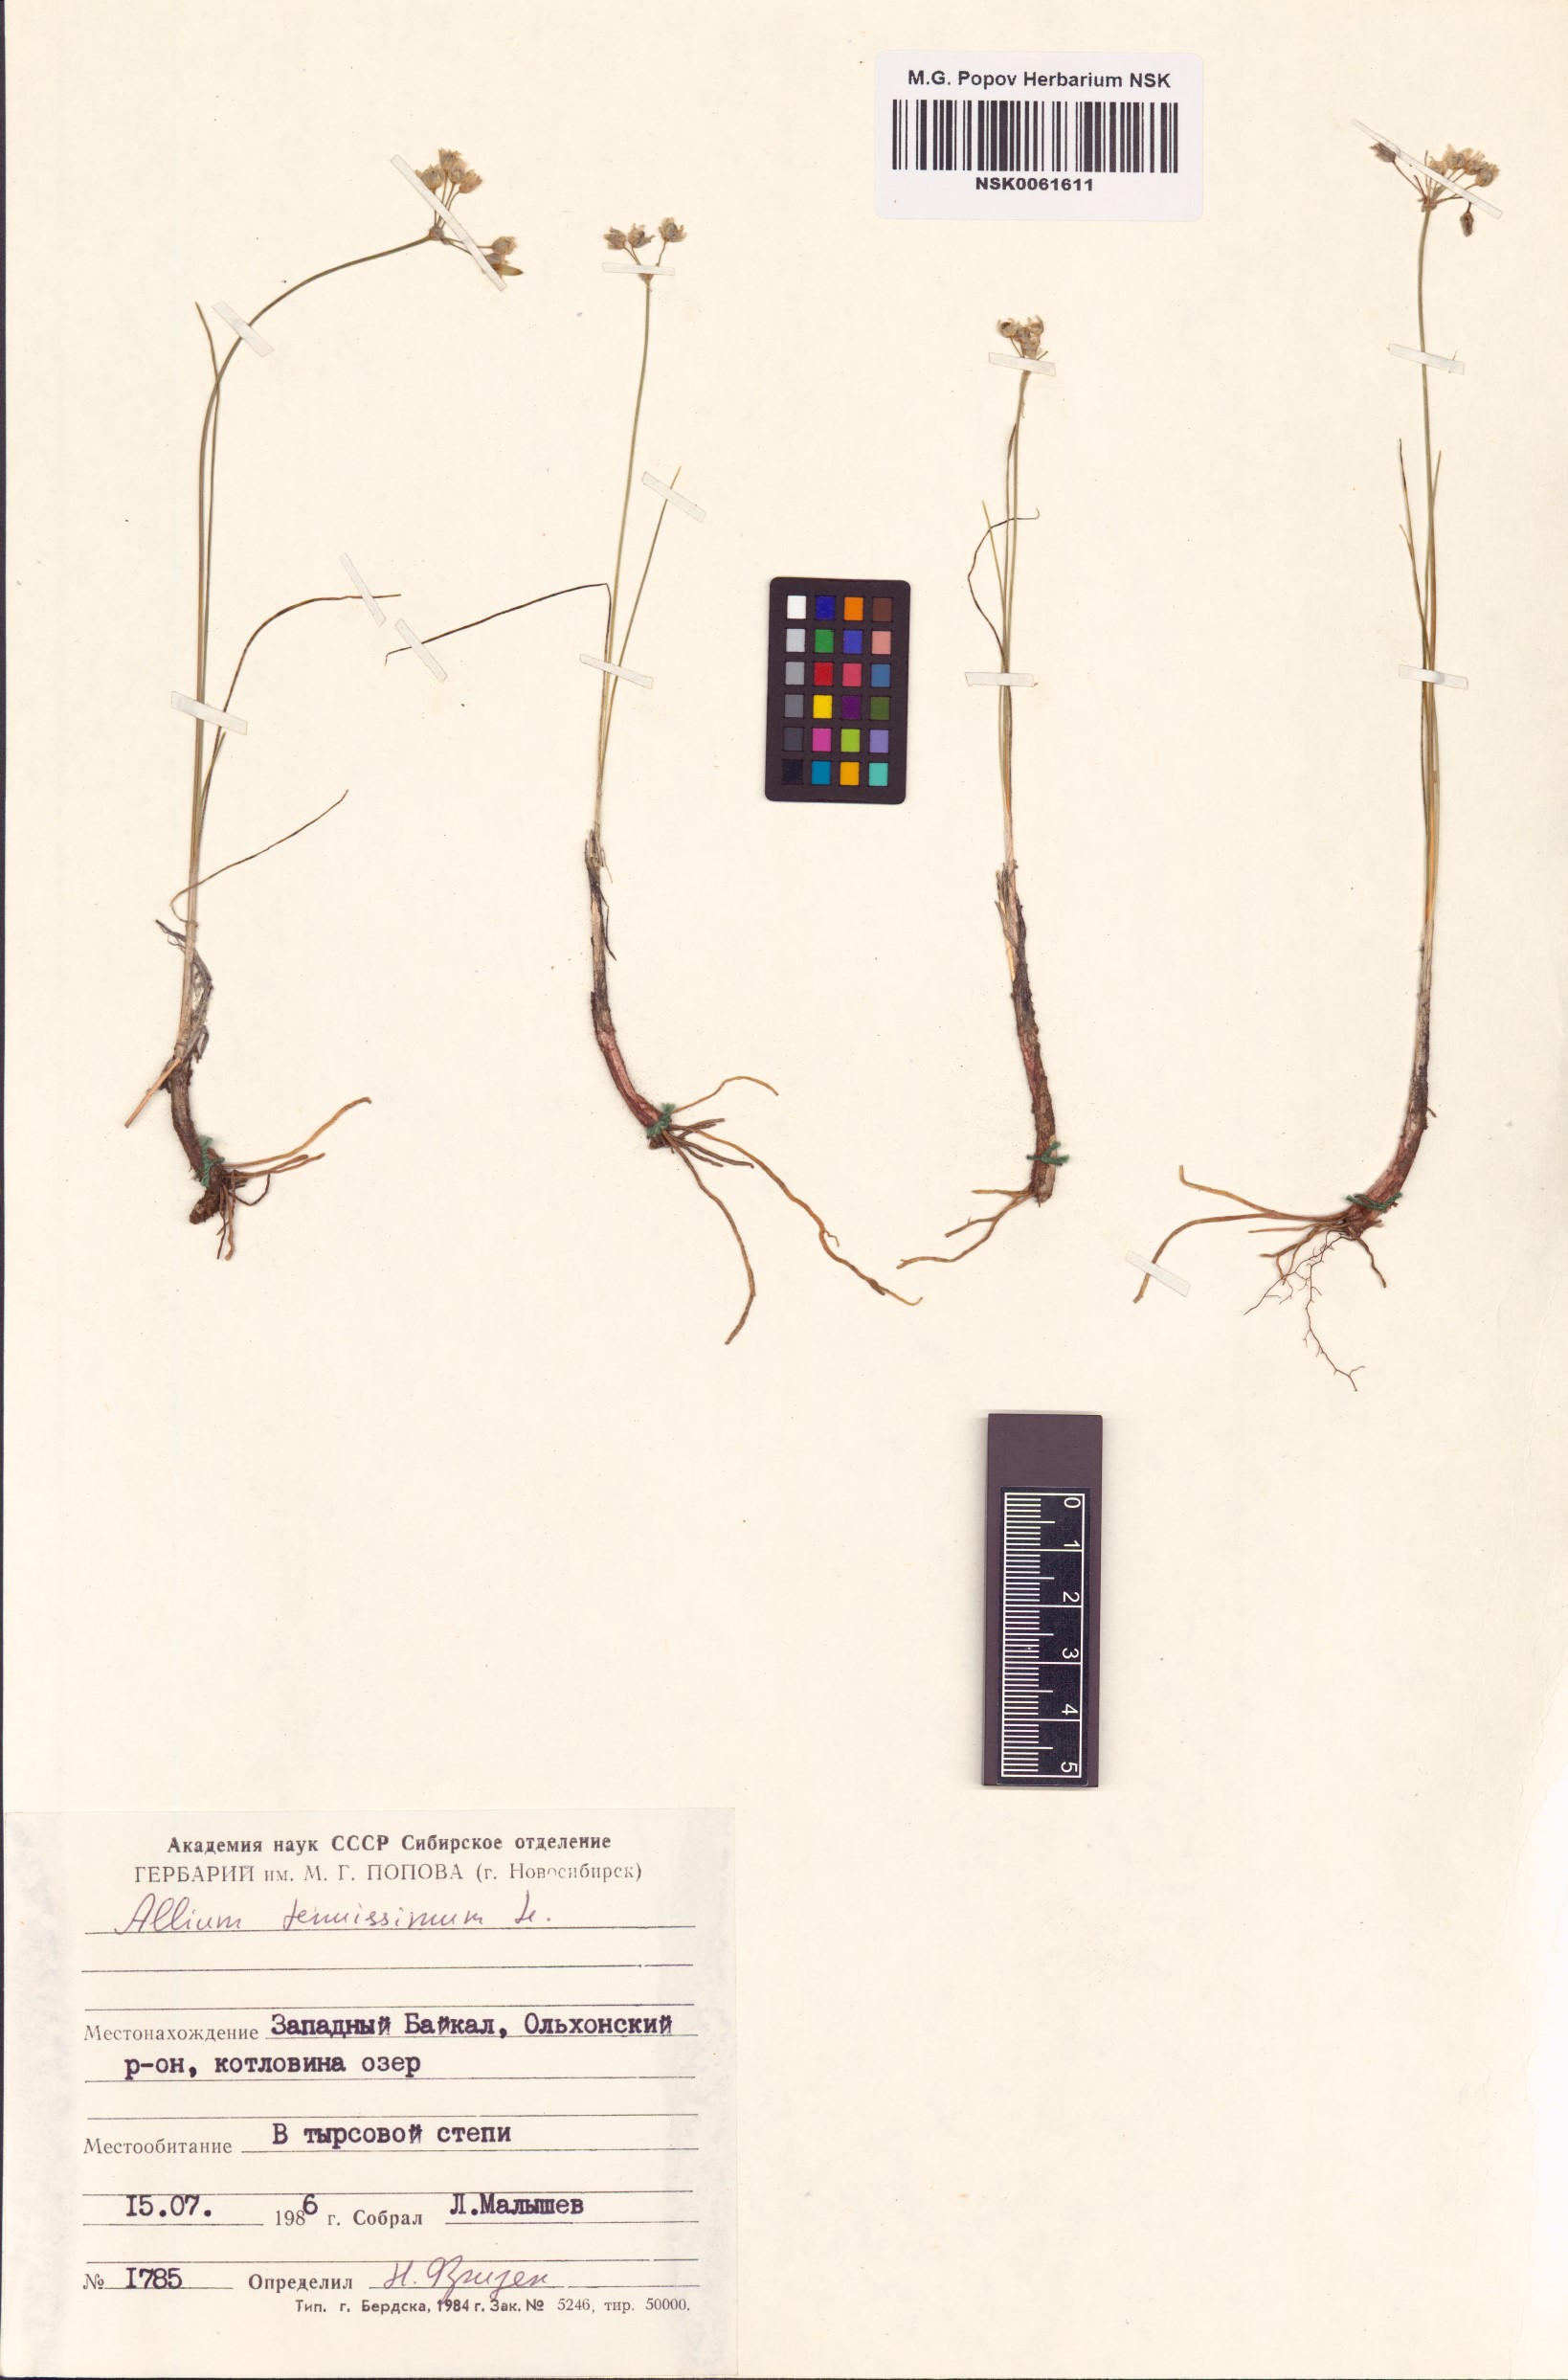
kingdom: Plantae
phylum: Tracheophyta
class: Liliopsida
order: Asparagales
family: Amaryllidaceae
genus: Allium
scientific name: Allium tenuissimum
